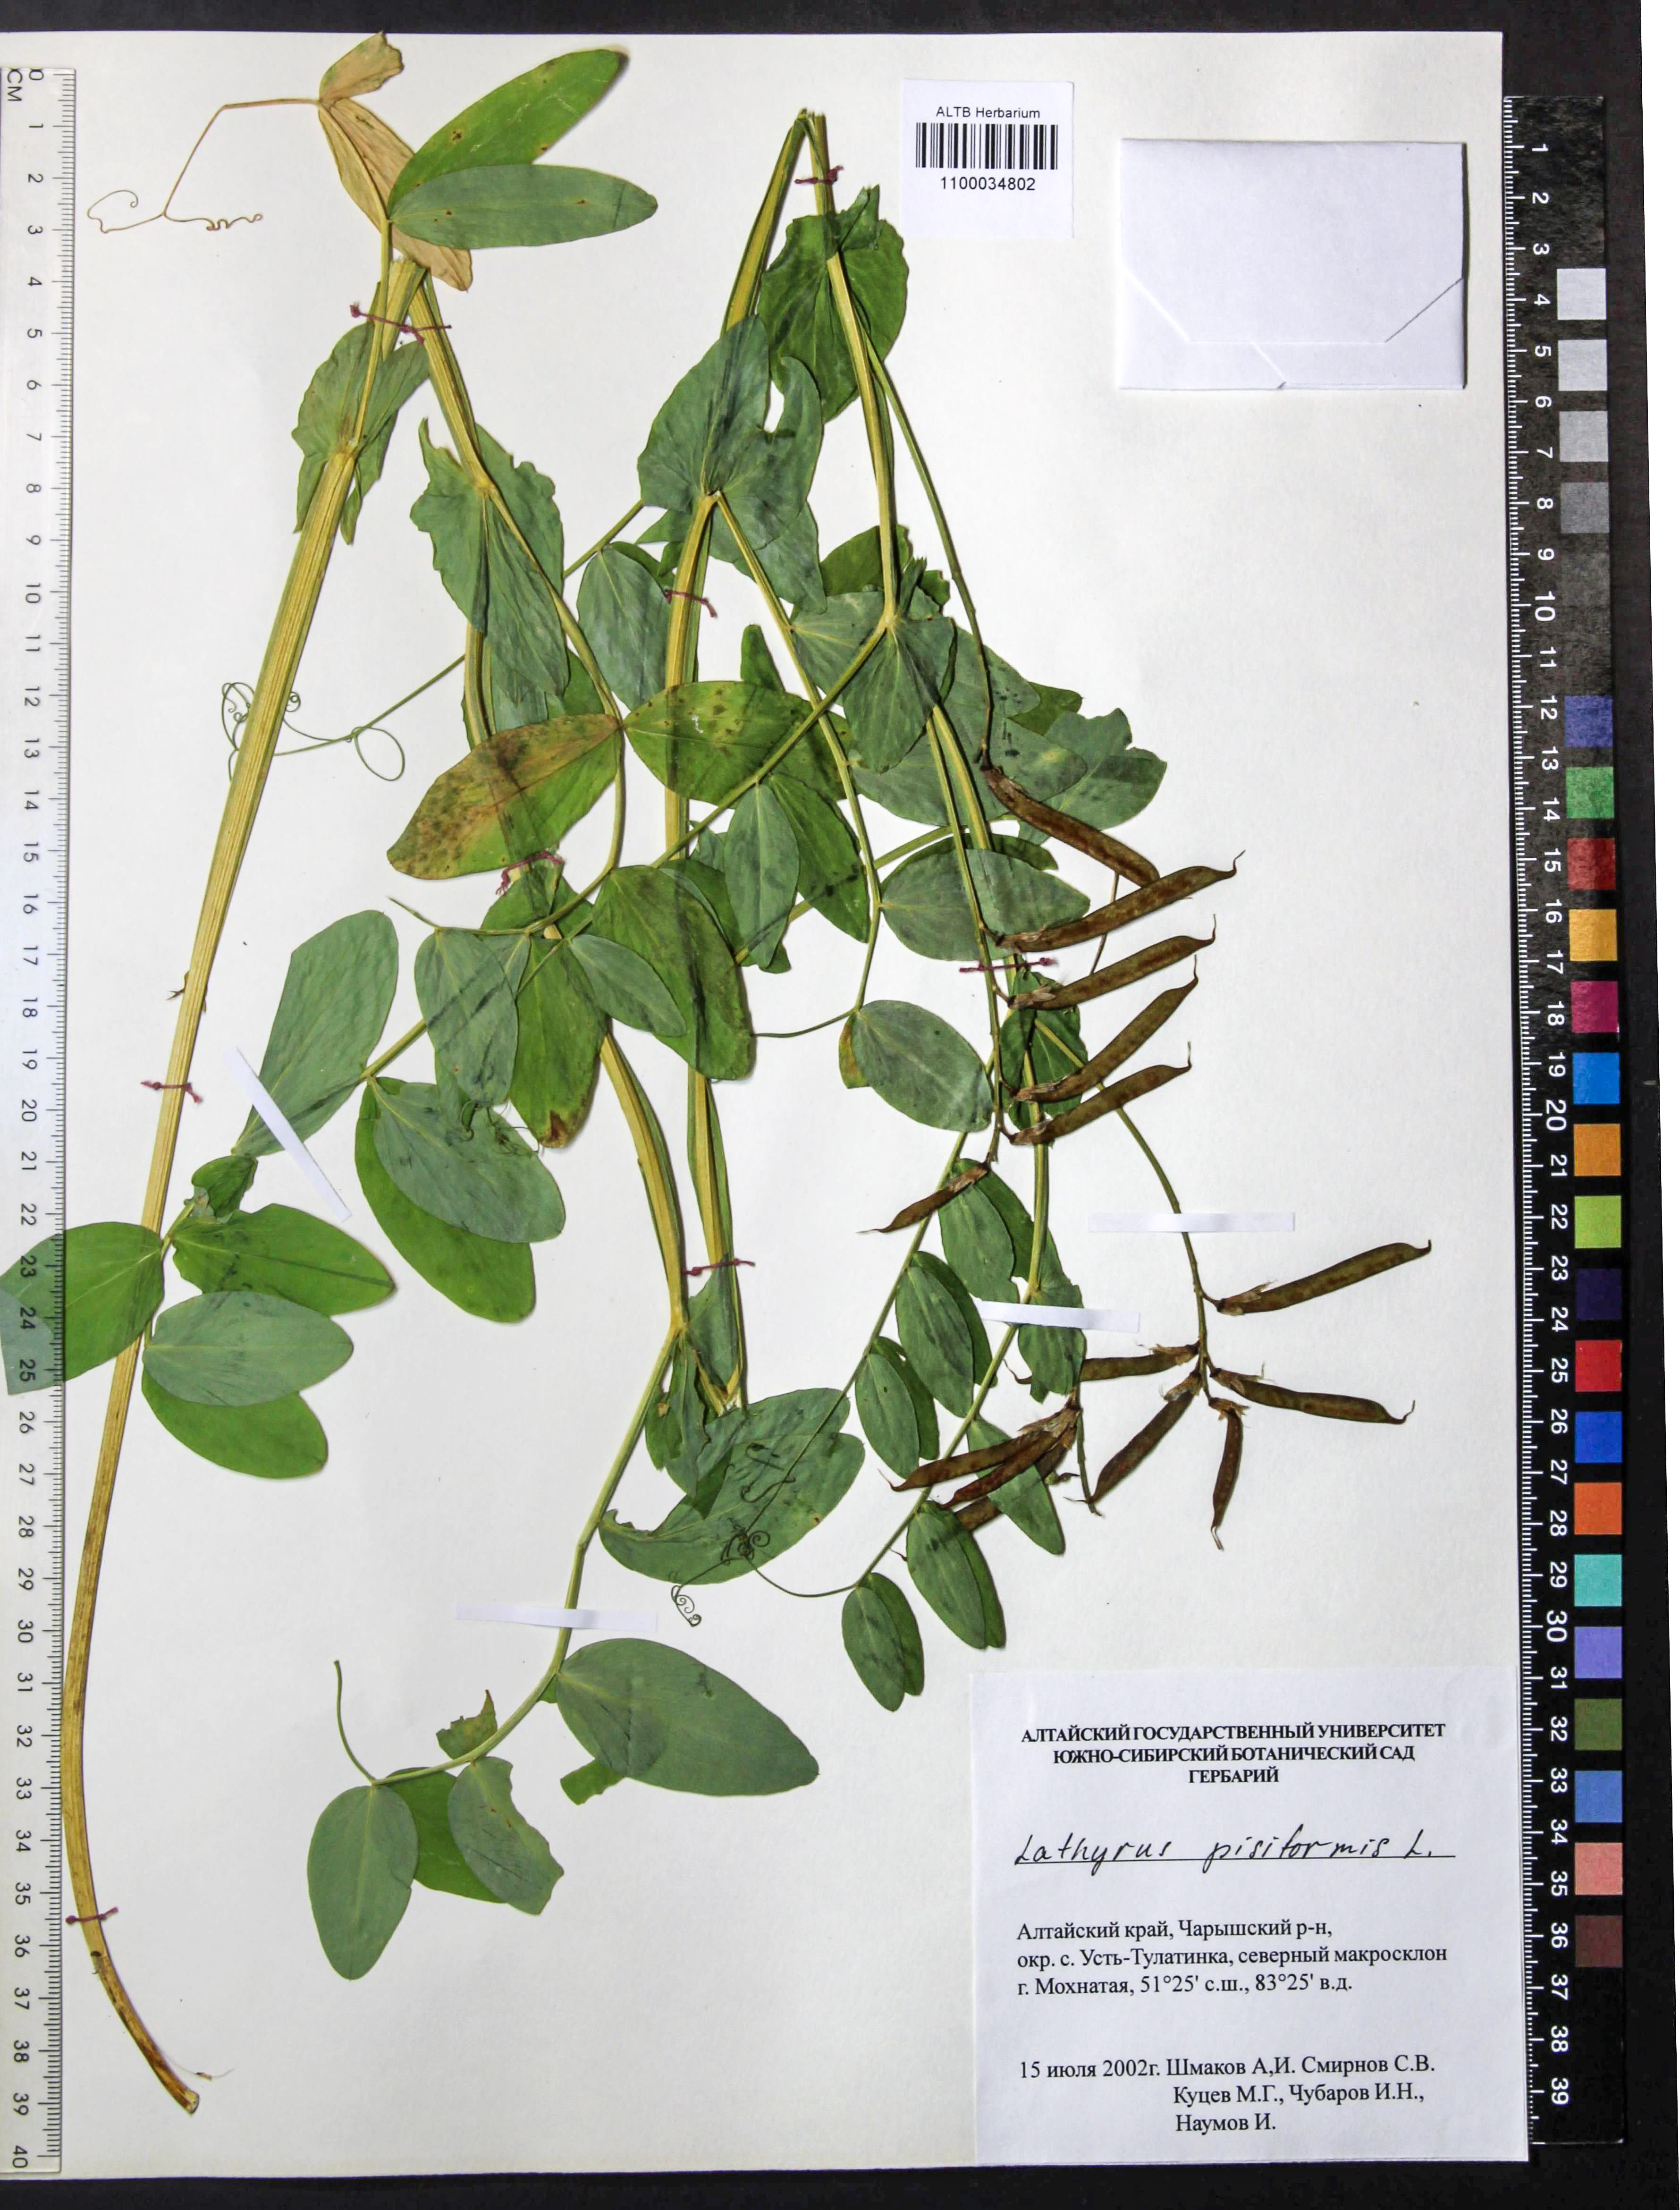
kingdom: Plantae
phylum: Tracheophyta
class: Magnoliopsida
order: Fabales
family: Fabaceae
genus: Lathyrus
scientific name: Lathyrus pisiformis
